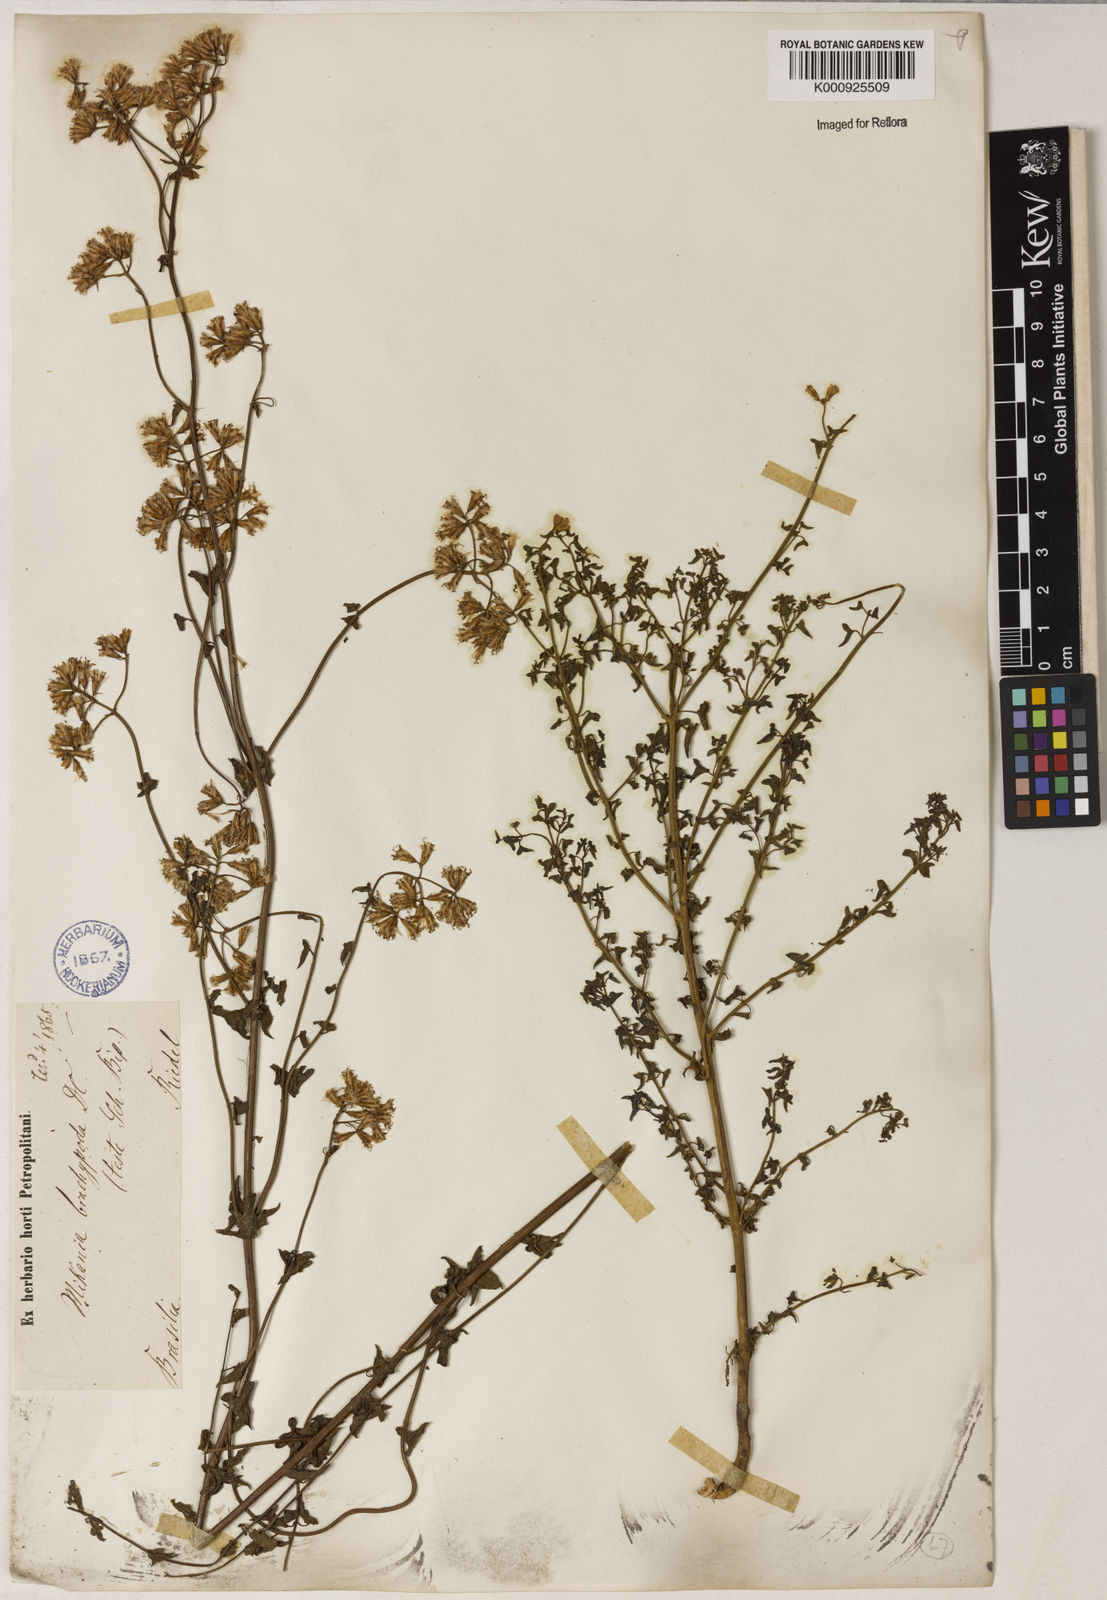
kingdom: Plantae
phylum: Tracheophyta
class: Magnoliopsida
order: Asterales
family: Asteraceae
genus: Mikania
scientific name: Mikania officinalis
